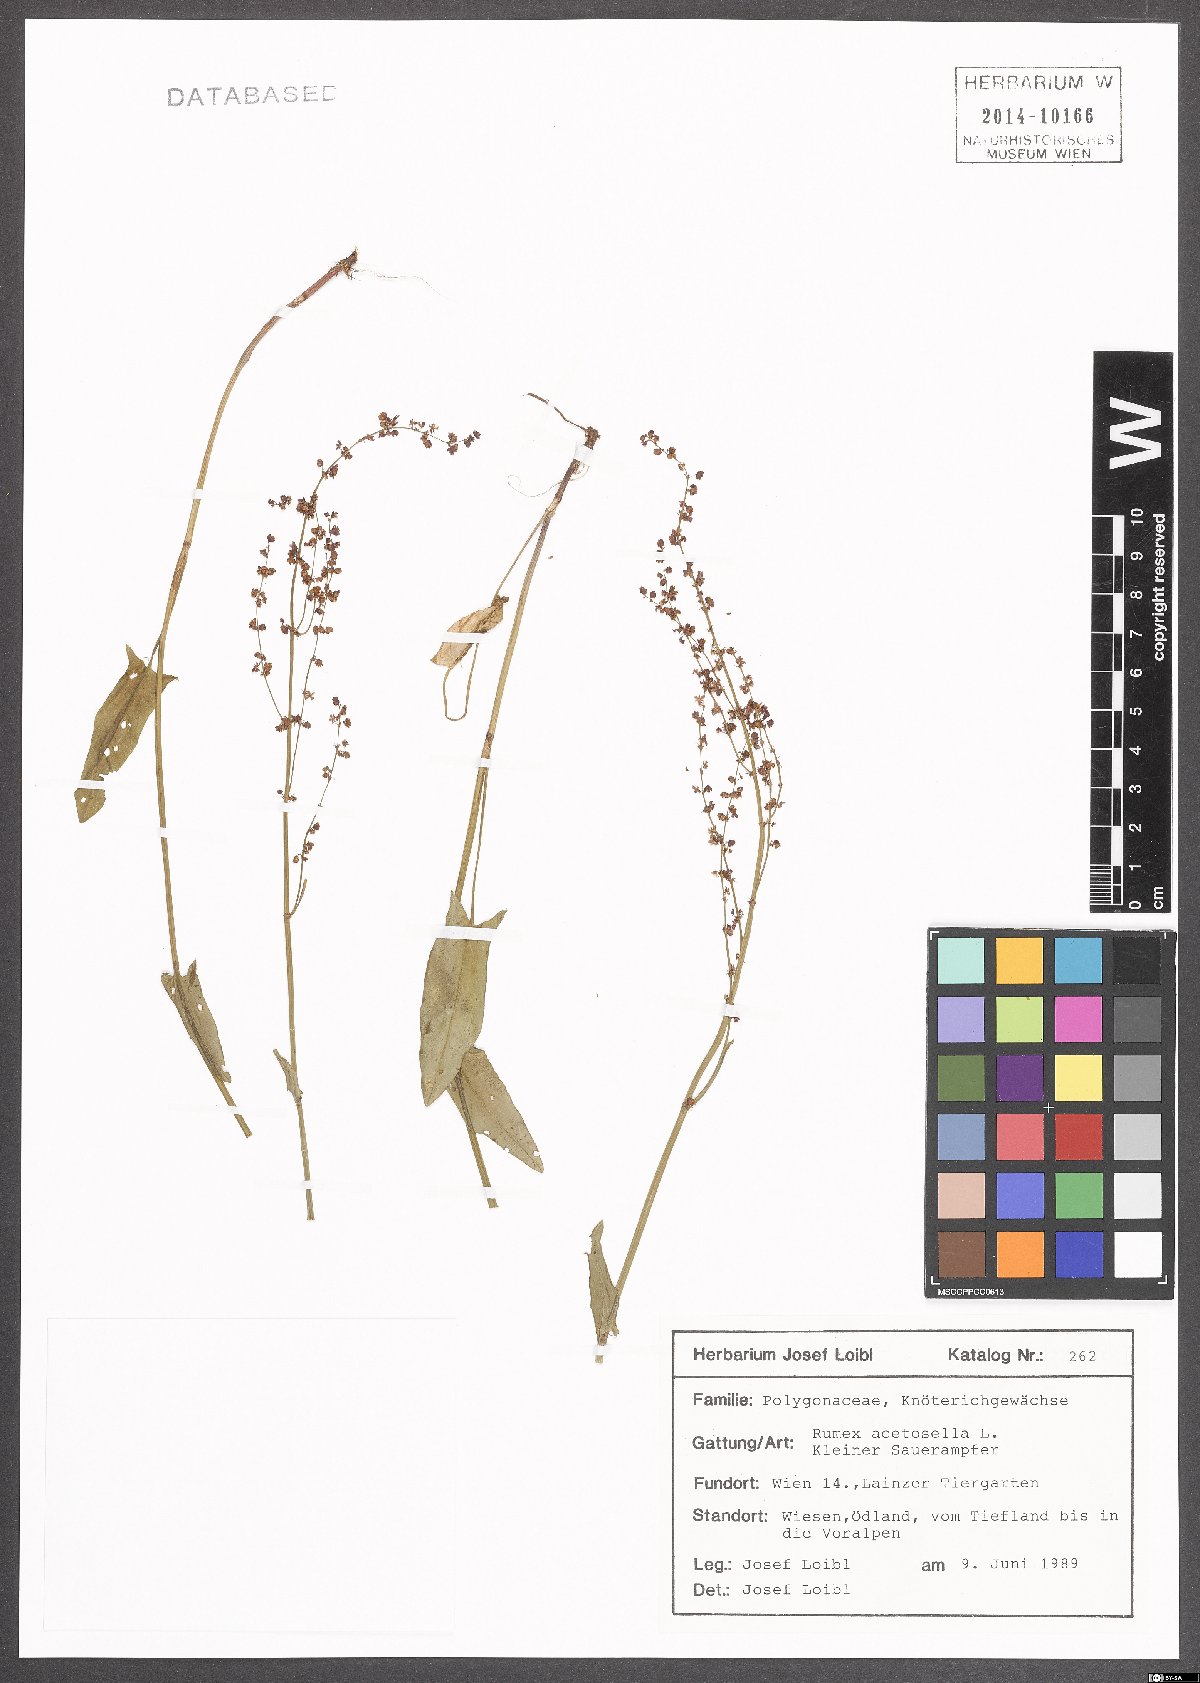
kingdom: Plantae
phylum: Tracheophyta
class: Magnoliopsida
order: Caryophyllales
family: Polygonaceae
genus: Rumex
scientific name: Rumex acetosella
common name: Common sheep sorrel
